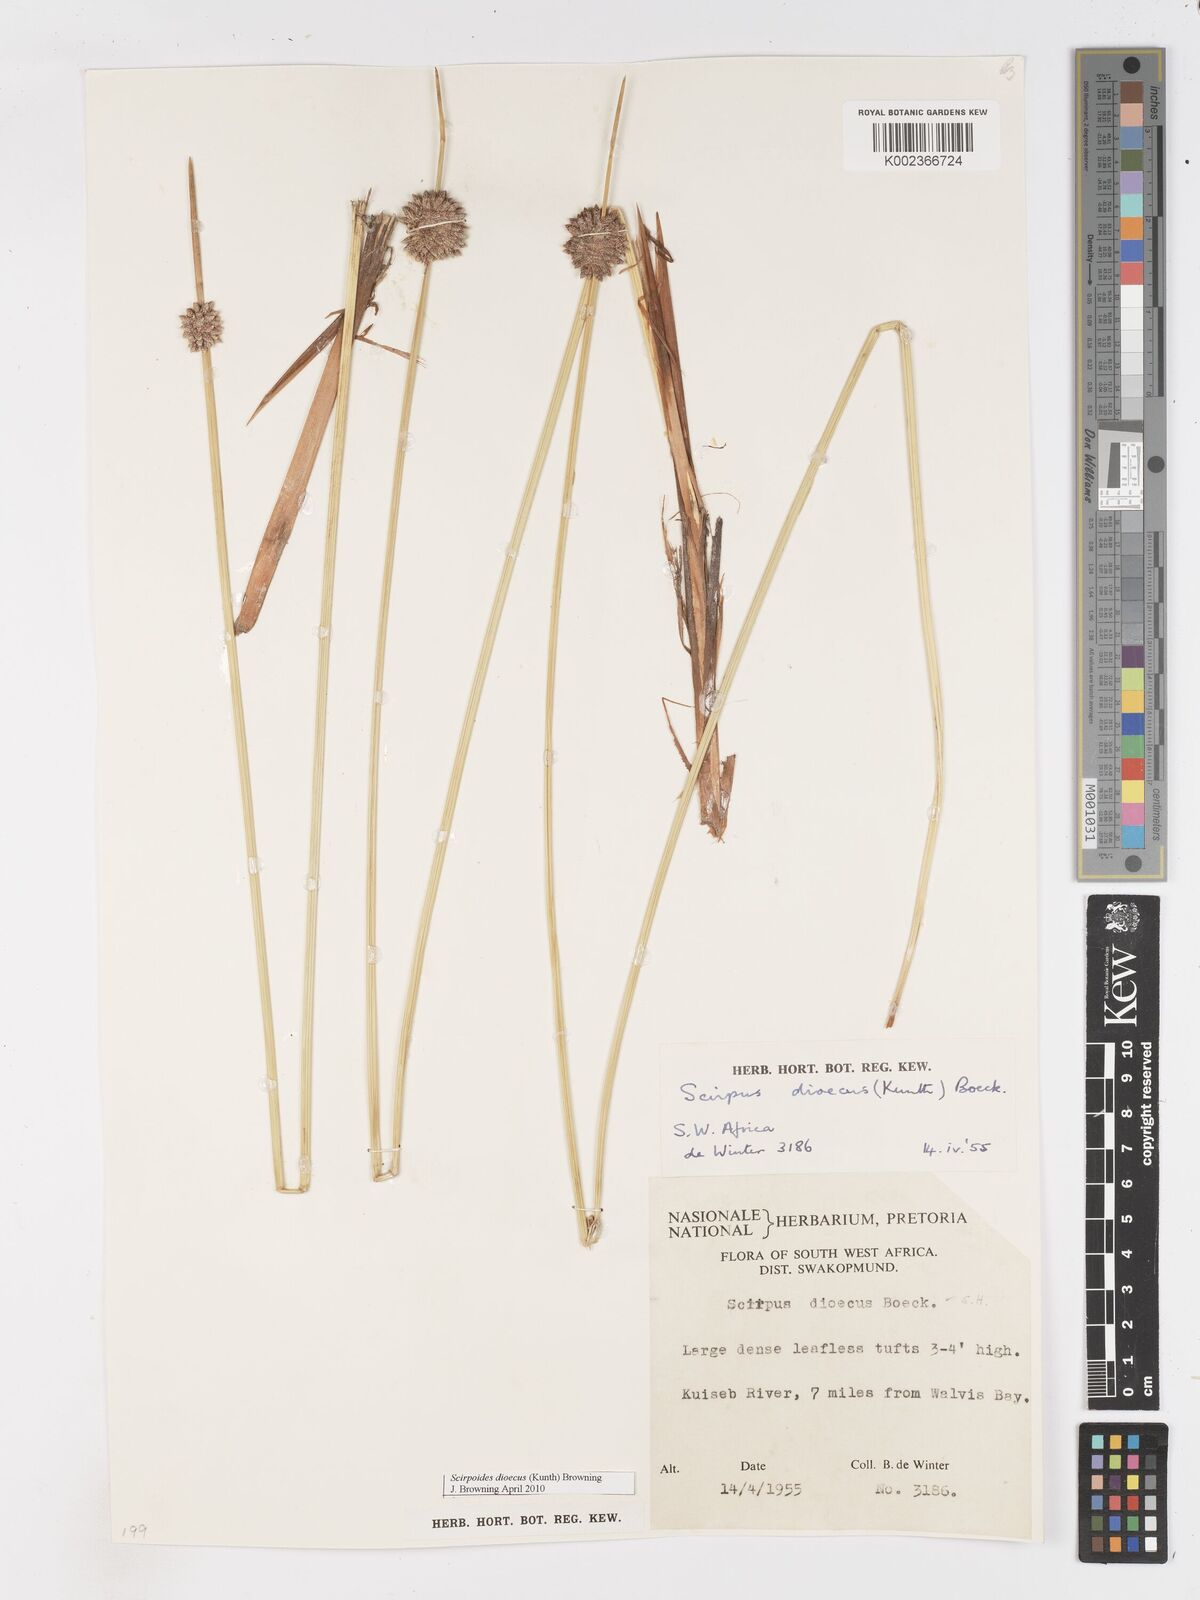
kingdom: Plantae
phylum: Tracheophyta
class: Liliopsida
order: Poales
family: Cyperaceae
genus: Scirpoides
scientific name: Scirpoides
